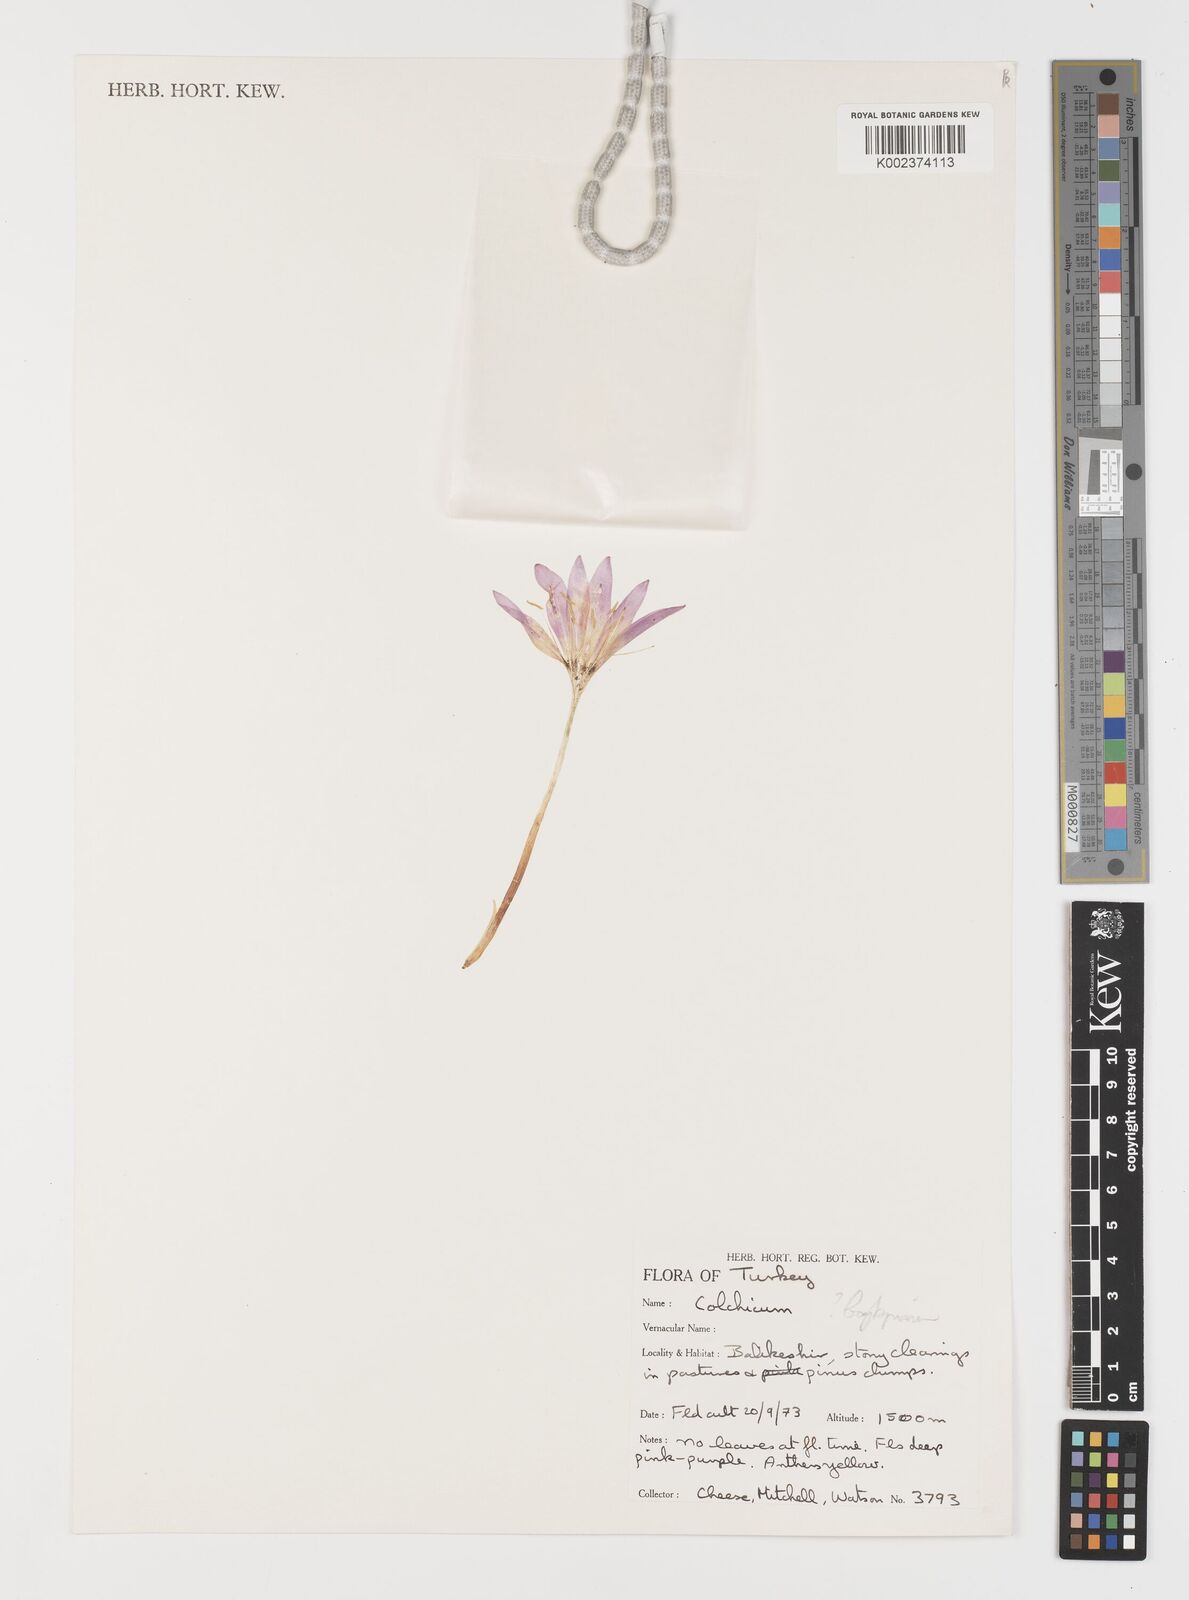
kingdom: Plantae
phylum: Tracheophyta
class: Liliopsida
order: Liliales
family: Colchicaceae
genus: Colchicum
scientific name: Colchicum baytopiorum
